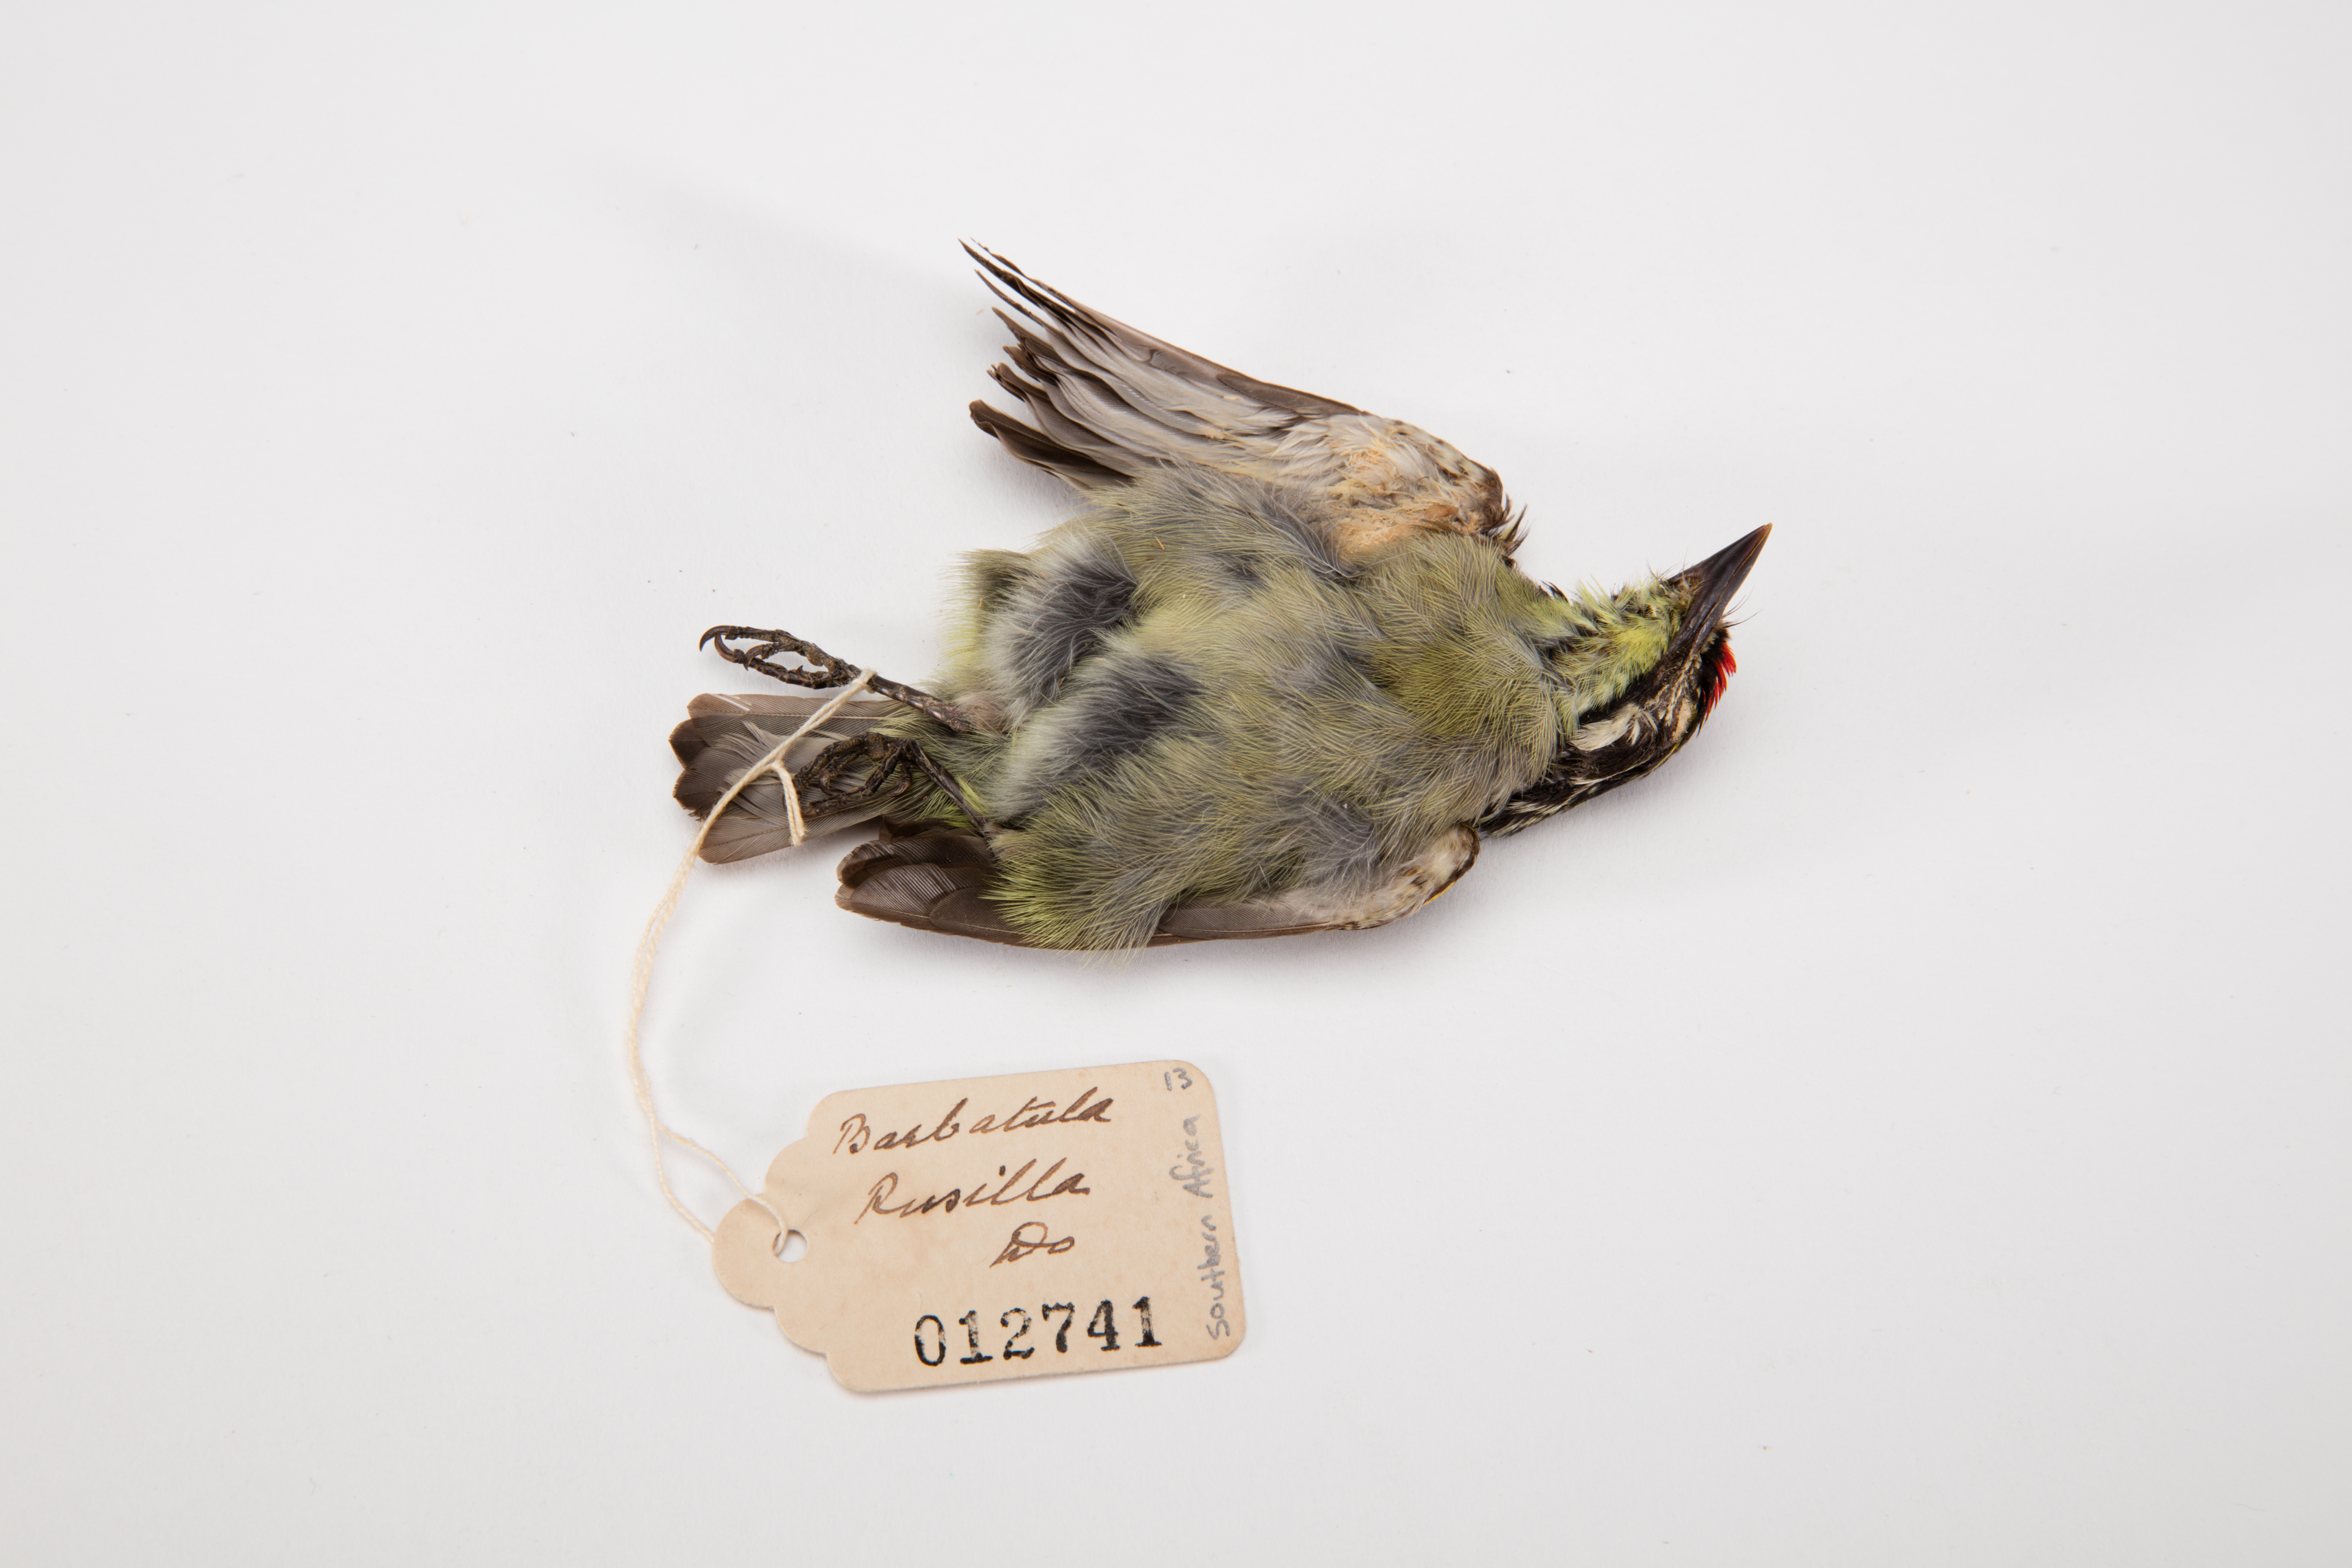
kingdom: Animalia
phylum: Chordata
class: Aves
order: Piciformes
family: Lybiidae
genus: Pogoniulus
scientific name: Pogoniulus pusillus
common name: Red-fronted tinkerbird
